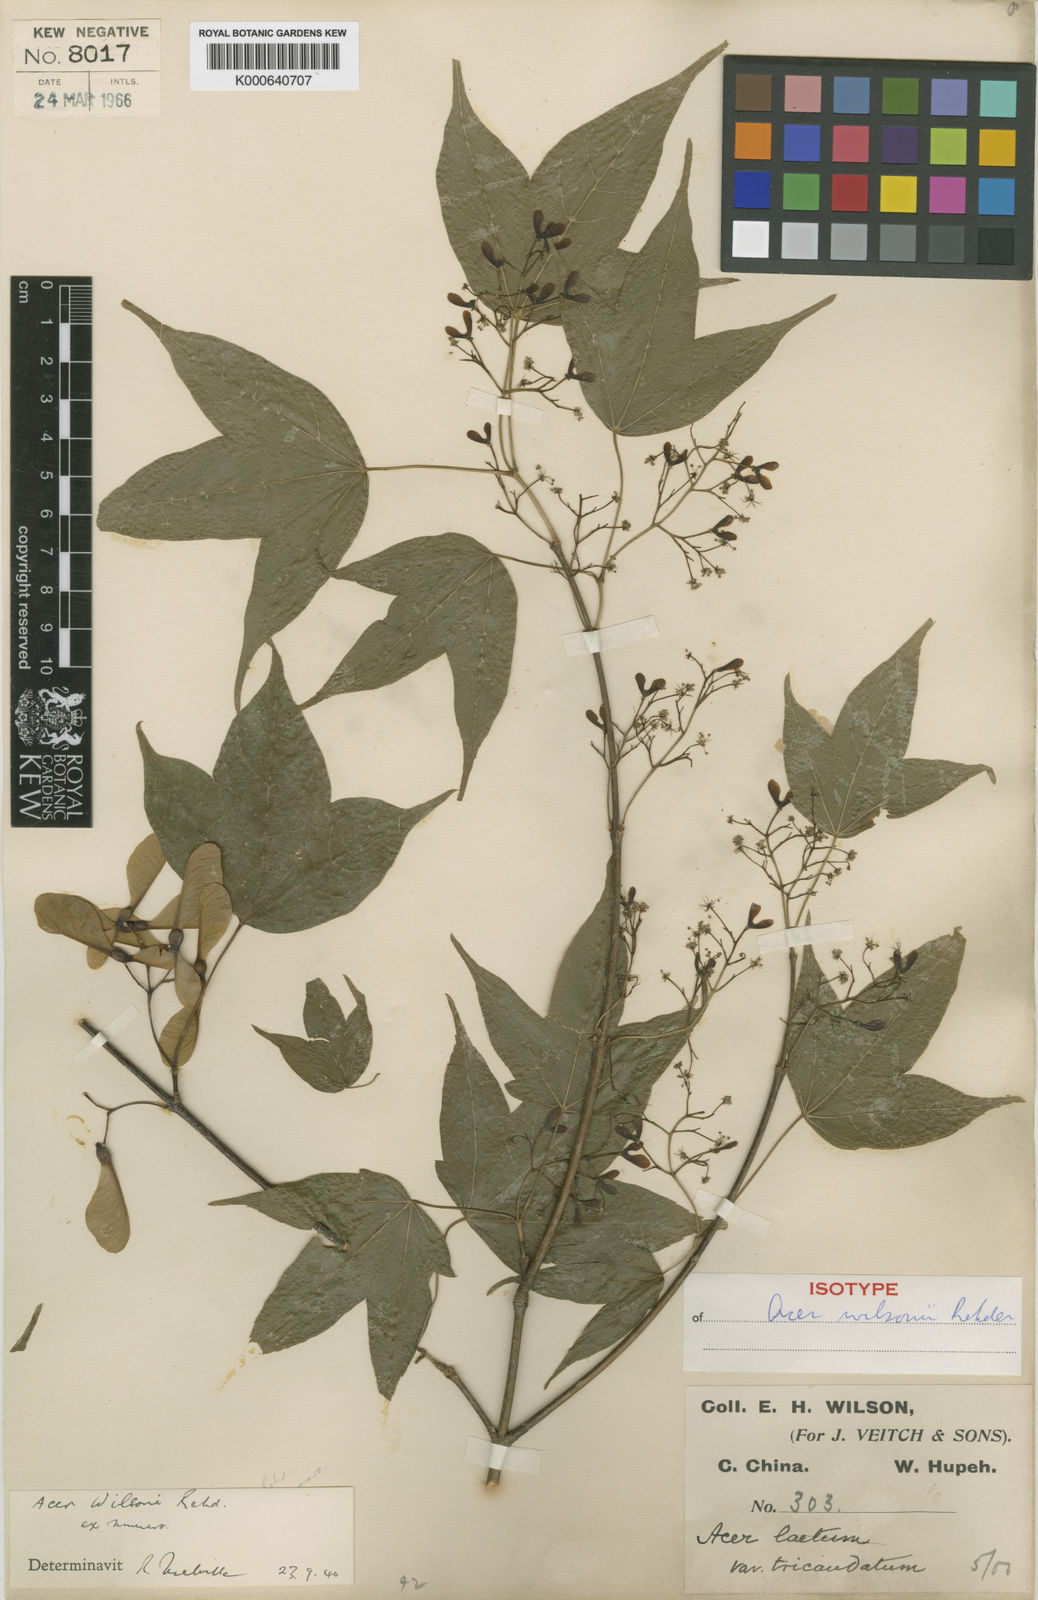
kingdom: Plantae
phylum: Tracheophyta
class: Magnoliopsida
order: Sapindales
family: Sapindaceae
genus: Acer
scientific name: Acer wilsonii
